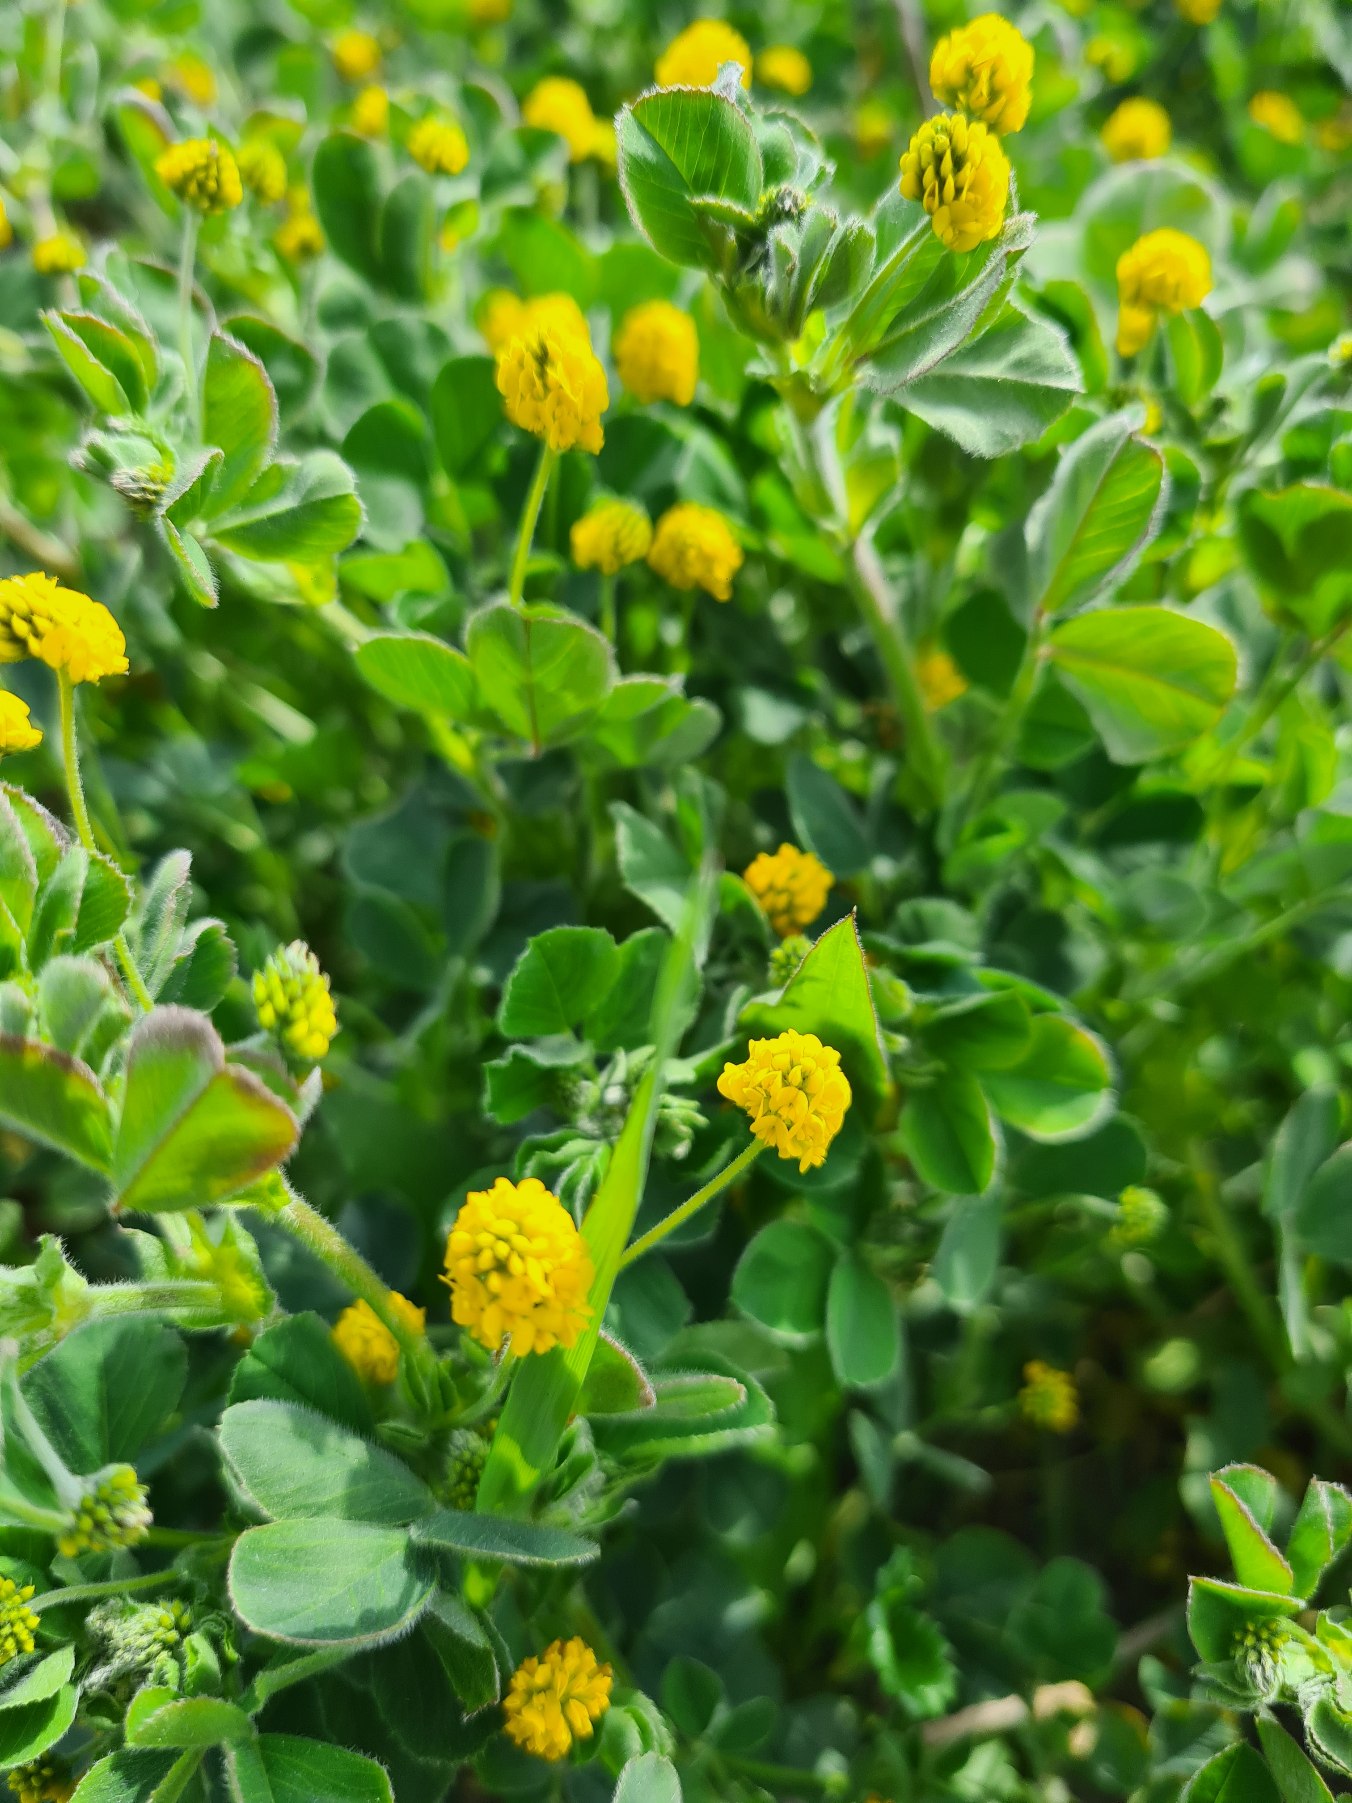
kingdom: Plantae
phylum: Tracheophyta
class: Magnoliopsida
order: Fabales
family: Fabaceae
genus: Medicago
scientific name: Medicago lupulina
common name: Humle-sneglebælg
